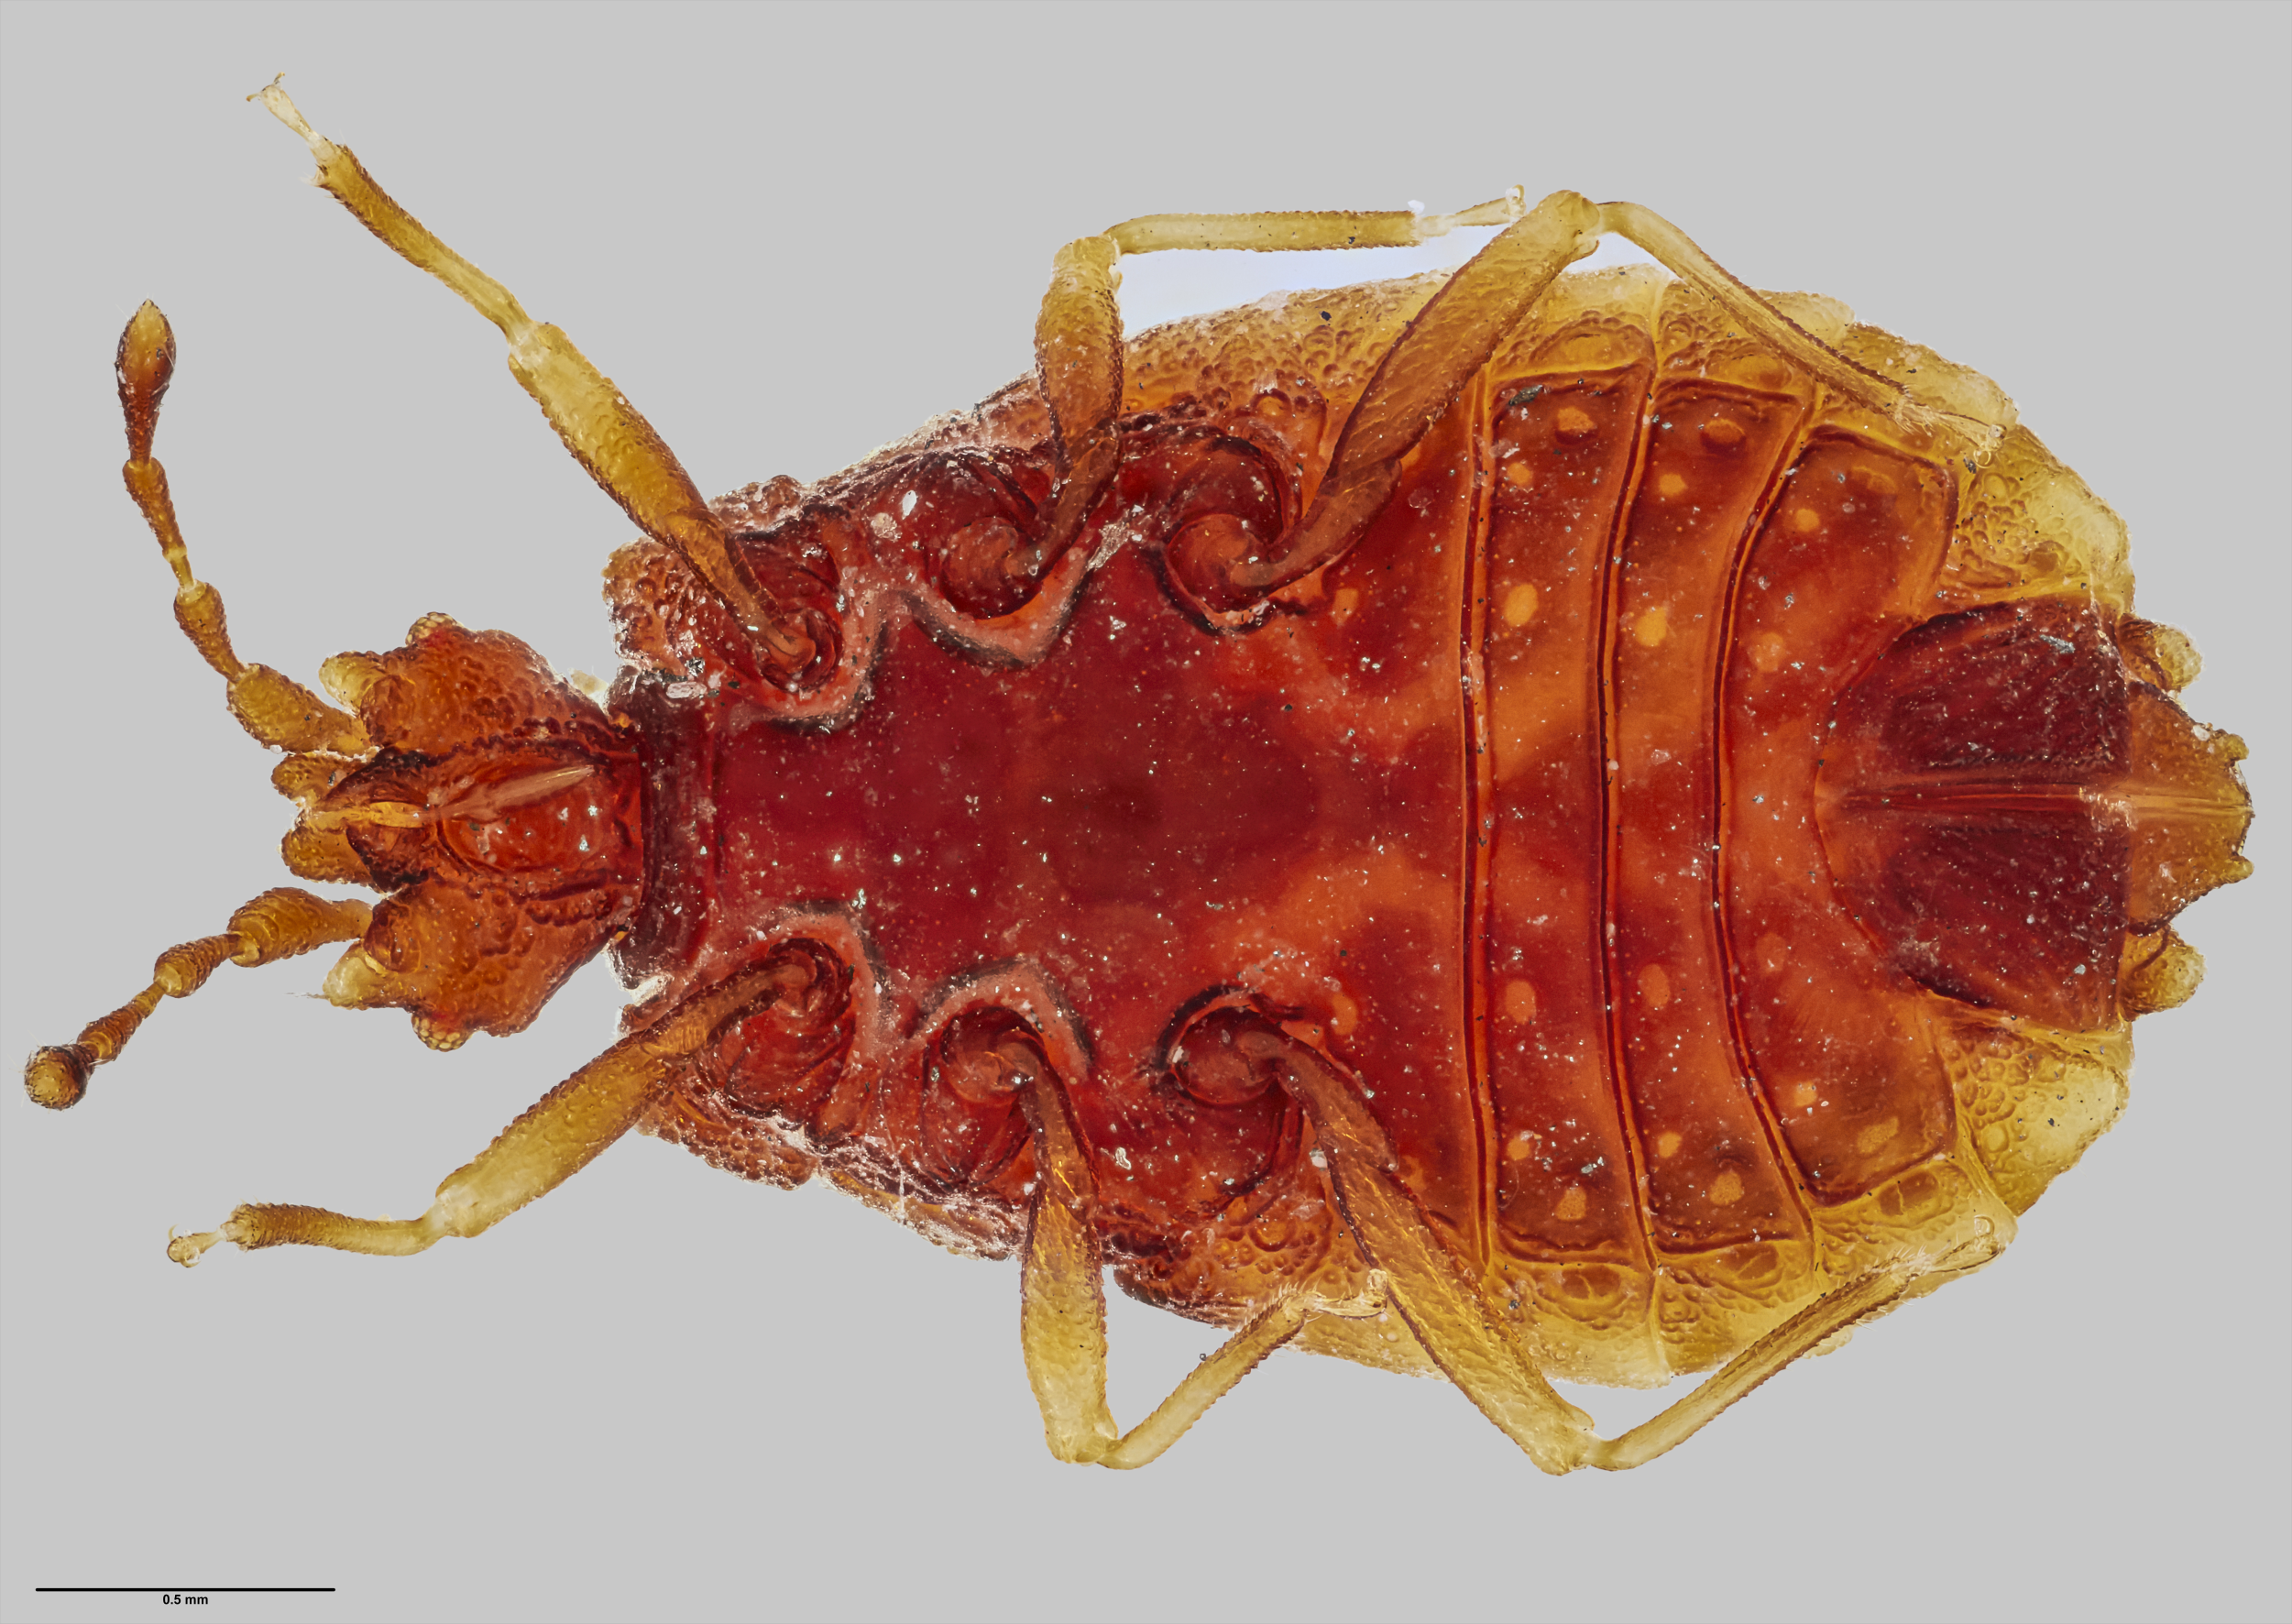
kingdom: Animalia
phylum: Arthropoda
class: Insecta
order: Hemiptera
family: Aradidae
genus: Modicarventus
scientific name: Modicarventus wisei
